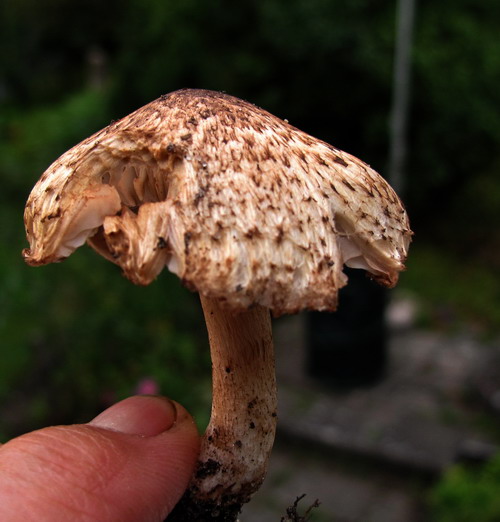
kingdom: Fungi
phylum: Basidiomycota
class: Agaricomycetes
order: Agaricales
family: Inocybaceae
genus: Inosperma
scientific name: Inosperma bongardii
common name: Bongards trævlhat
